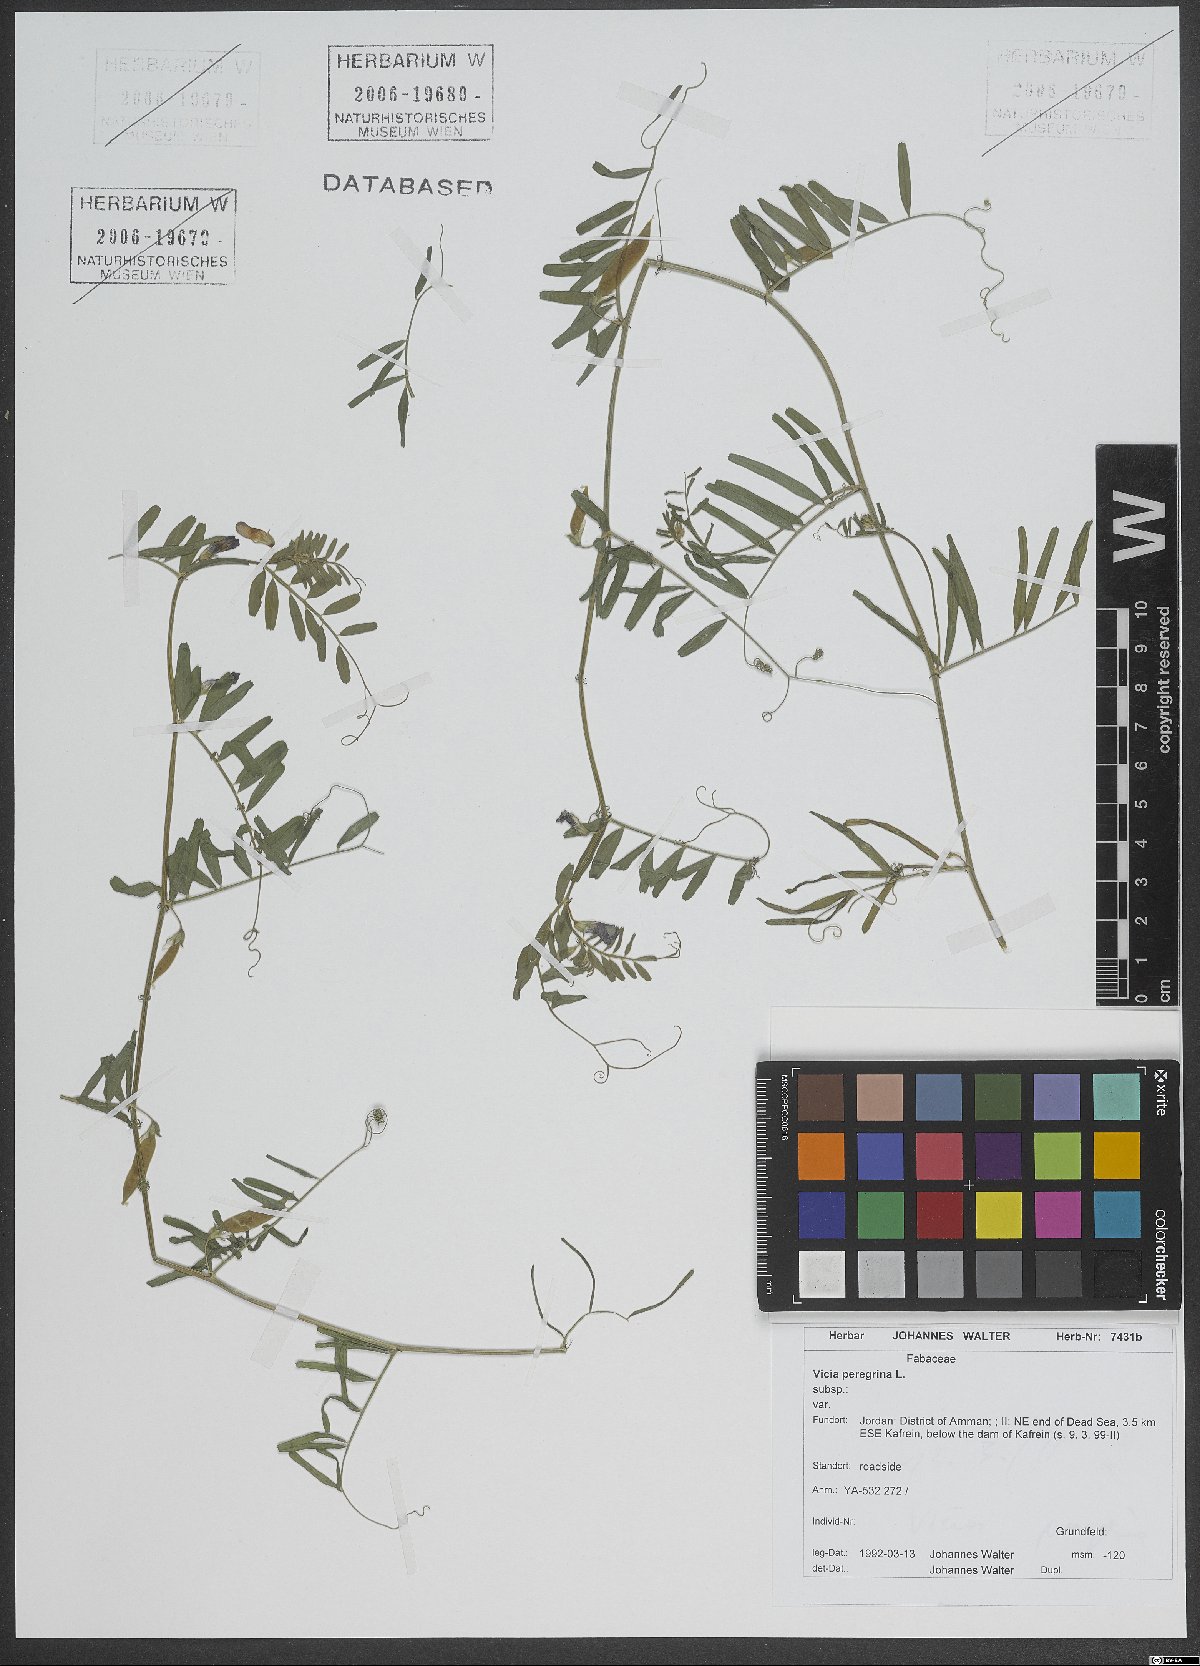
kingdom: Plantae
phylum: Tracheophyta
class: Magnoliopsida
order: Fabales
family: Fabaceae
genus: Vicia
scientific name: Vicia peregrina
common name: Broad-pod vetch
